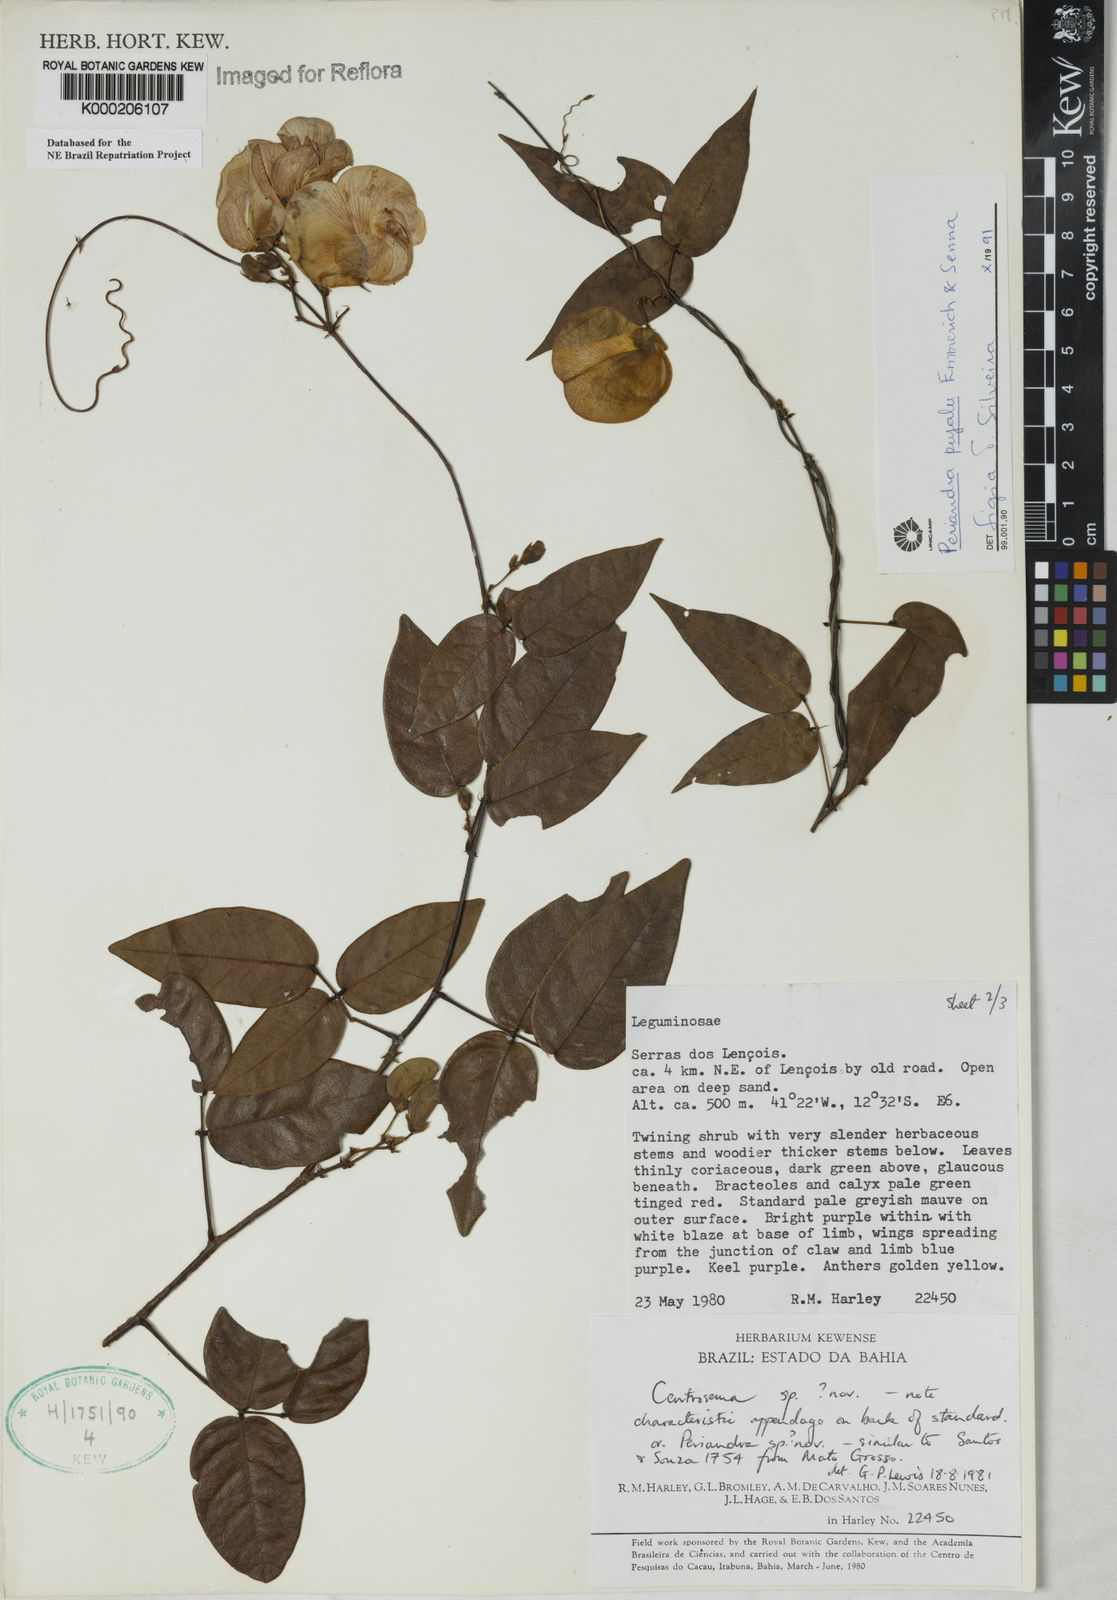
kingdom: Plantae
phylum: Tracheophyta
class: Magnoliopsida
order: Fabales
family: Fabaceae
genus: Periandra
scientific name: Periandra pujalu
